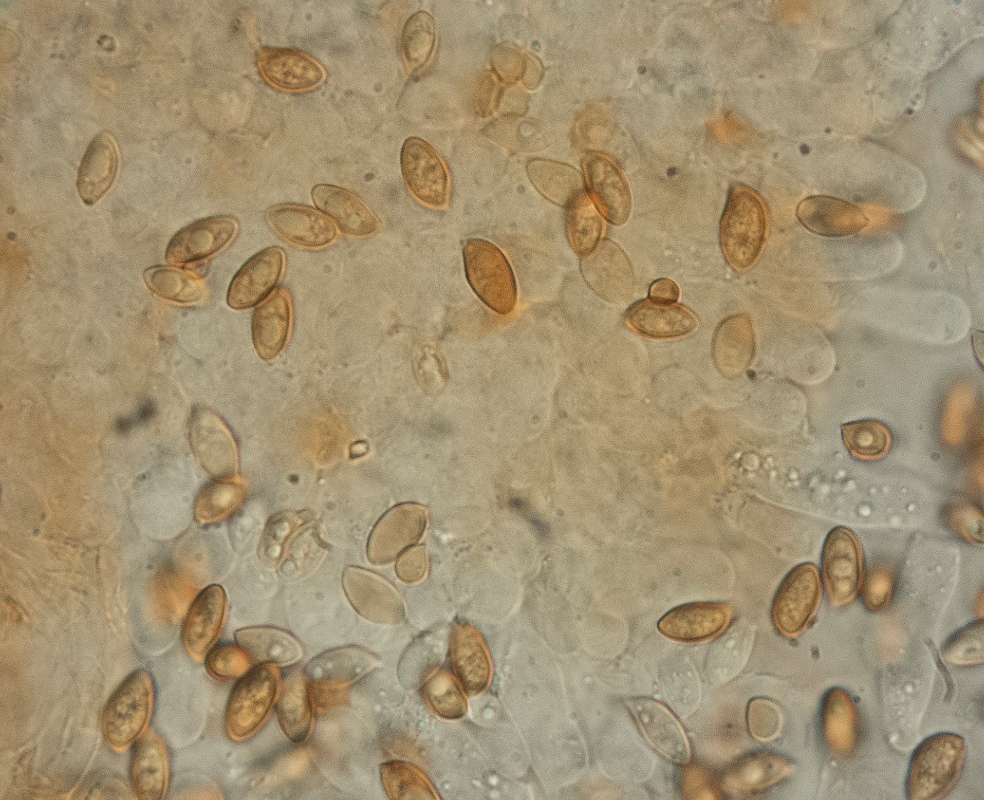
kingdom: Fungi
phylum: Basidiomycota
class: Agaricomycetes
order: Agaricales
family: Hymenogastraceae
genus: Galerina
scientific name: Galerina lacustris
